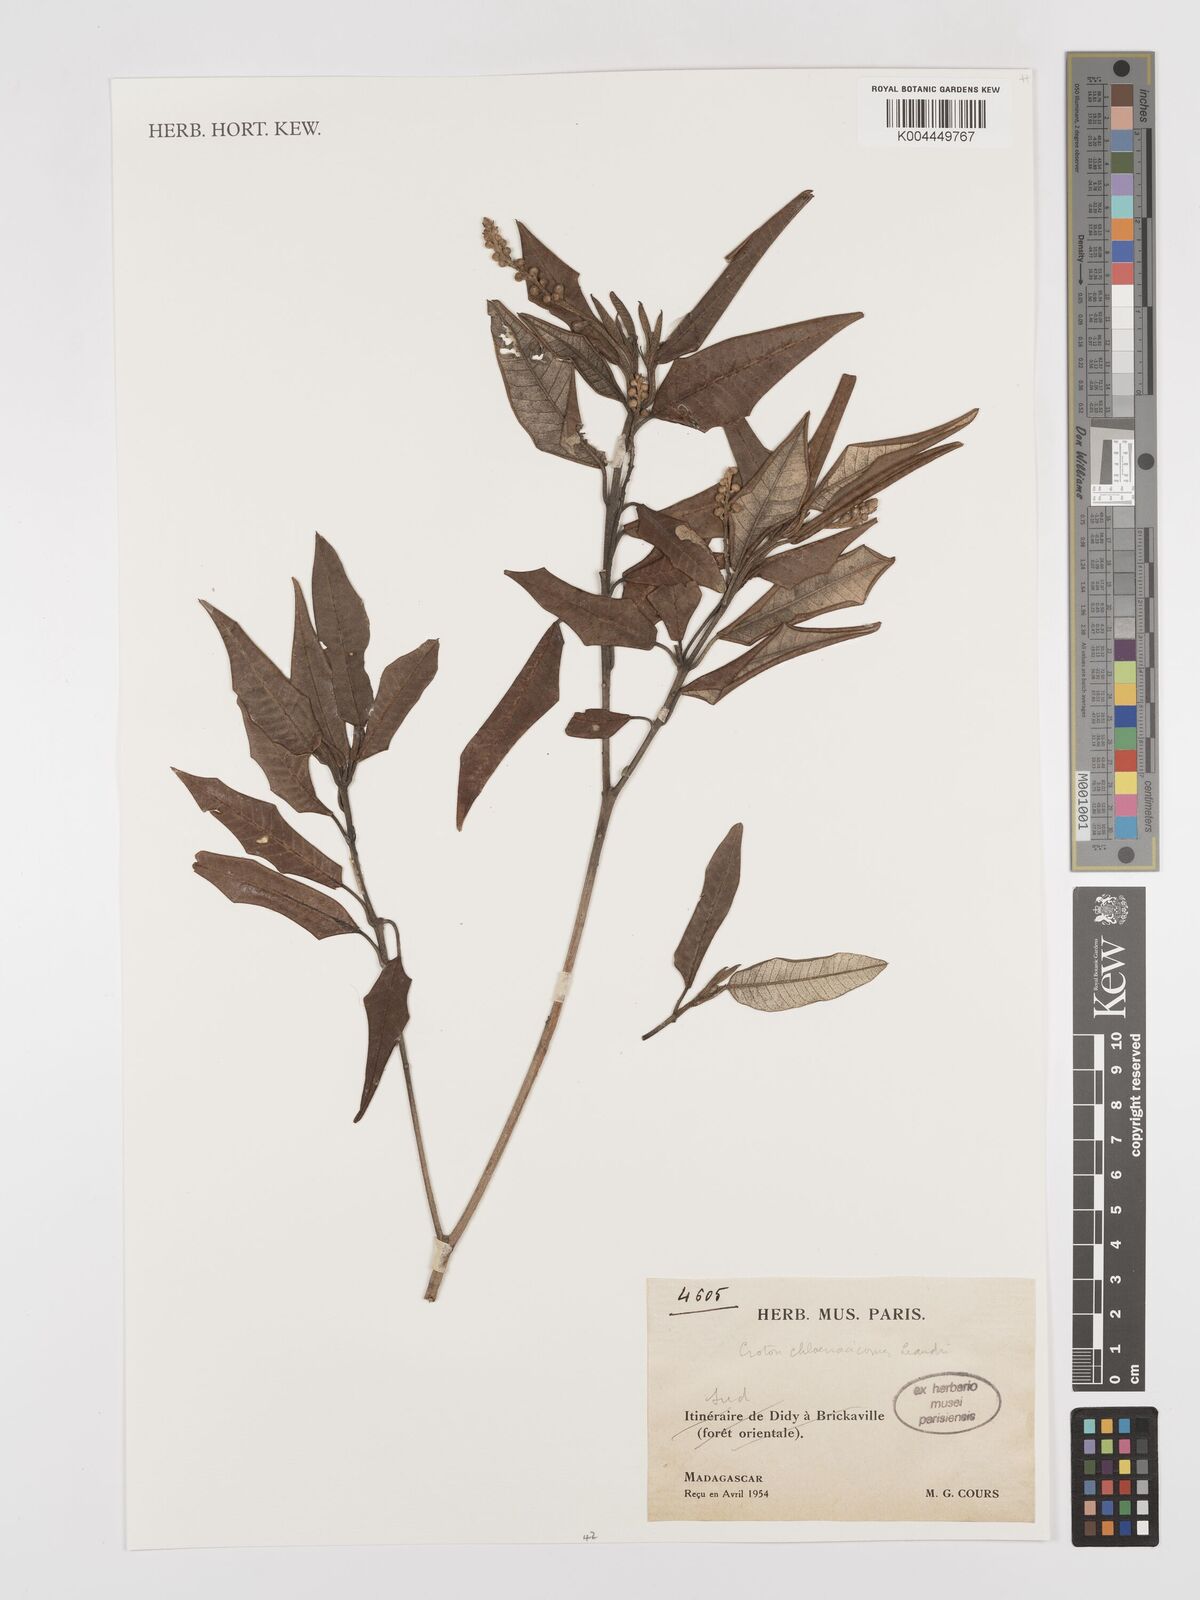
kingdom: Plantae
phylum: Tracheophyta
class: Magnoliopsida
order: Malpighiales
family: Euphorbiaceae
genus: Croton
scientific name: Croton chlaenacicomes
